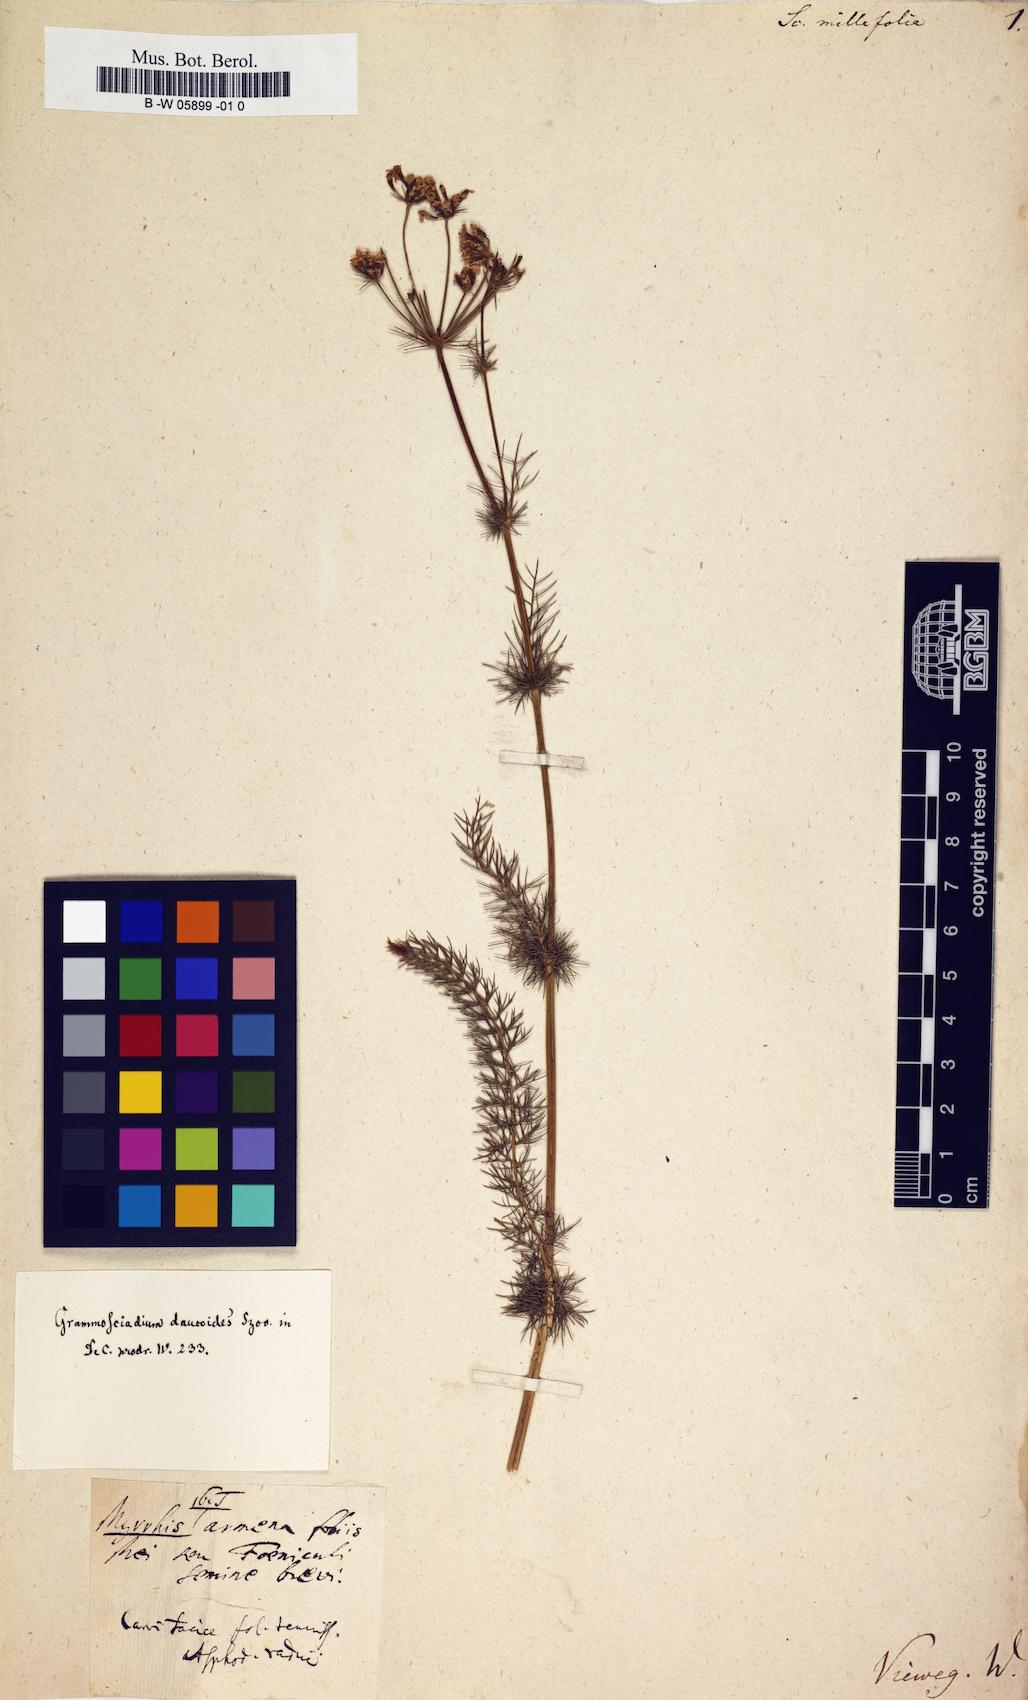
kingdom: Plantae
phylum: Tracheophyta
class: Magnoliopsida
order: Apiales
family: Apiaceae
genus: Chaerophyllum
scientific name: Chaerophyllum roseum
